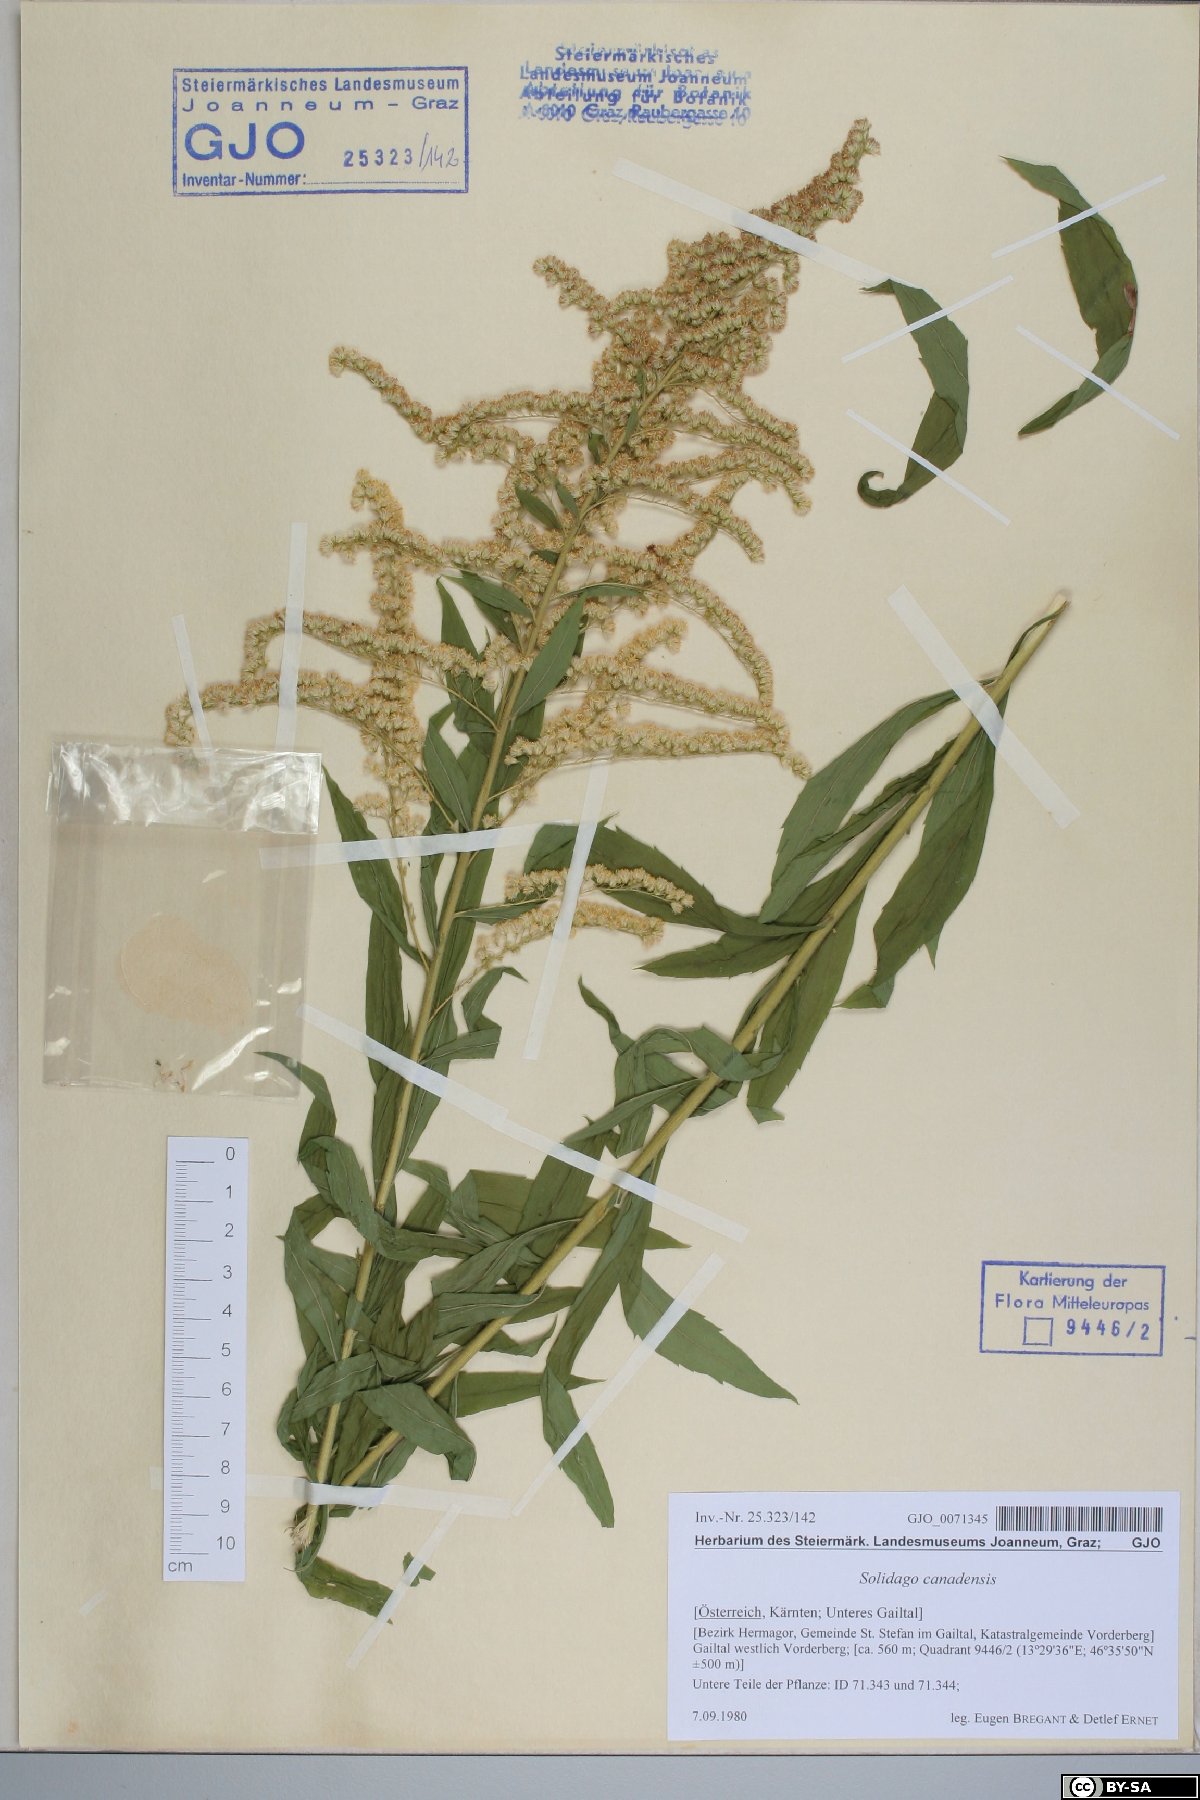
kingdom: Plantae
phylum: Tracheophyta
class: Magnoliopsida
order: Asterales
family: Asteraceae
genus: Solidago
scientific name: Solidago canadensis
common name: Canada goldenrod
